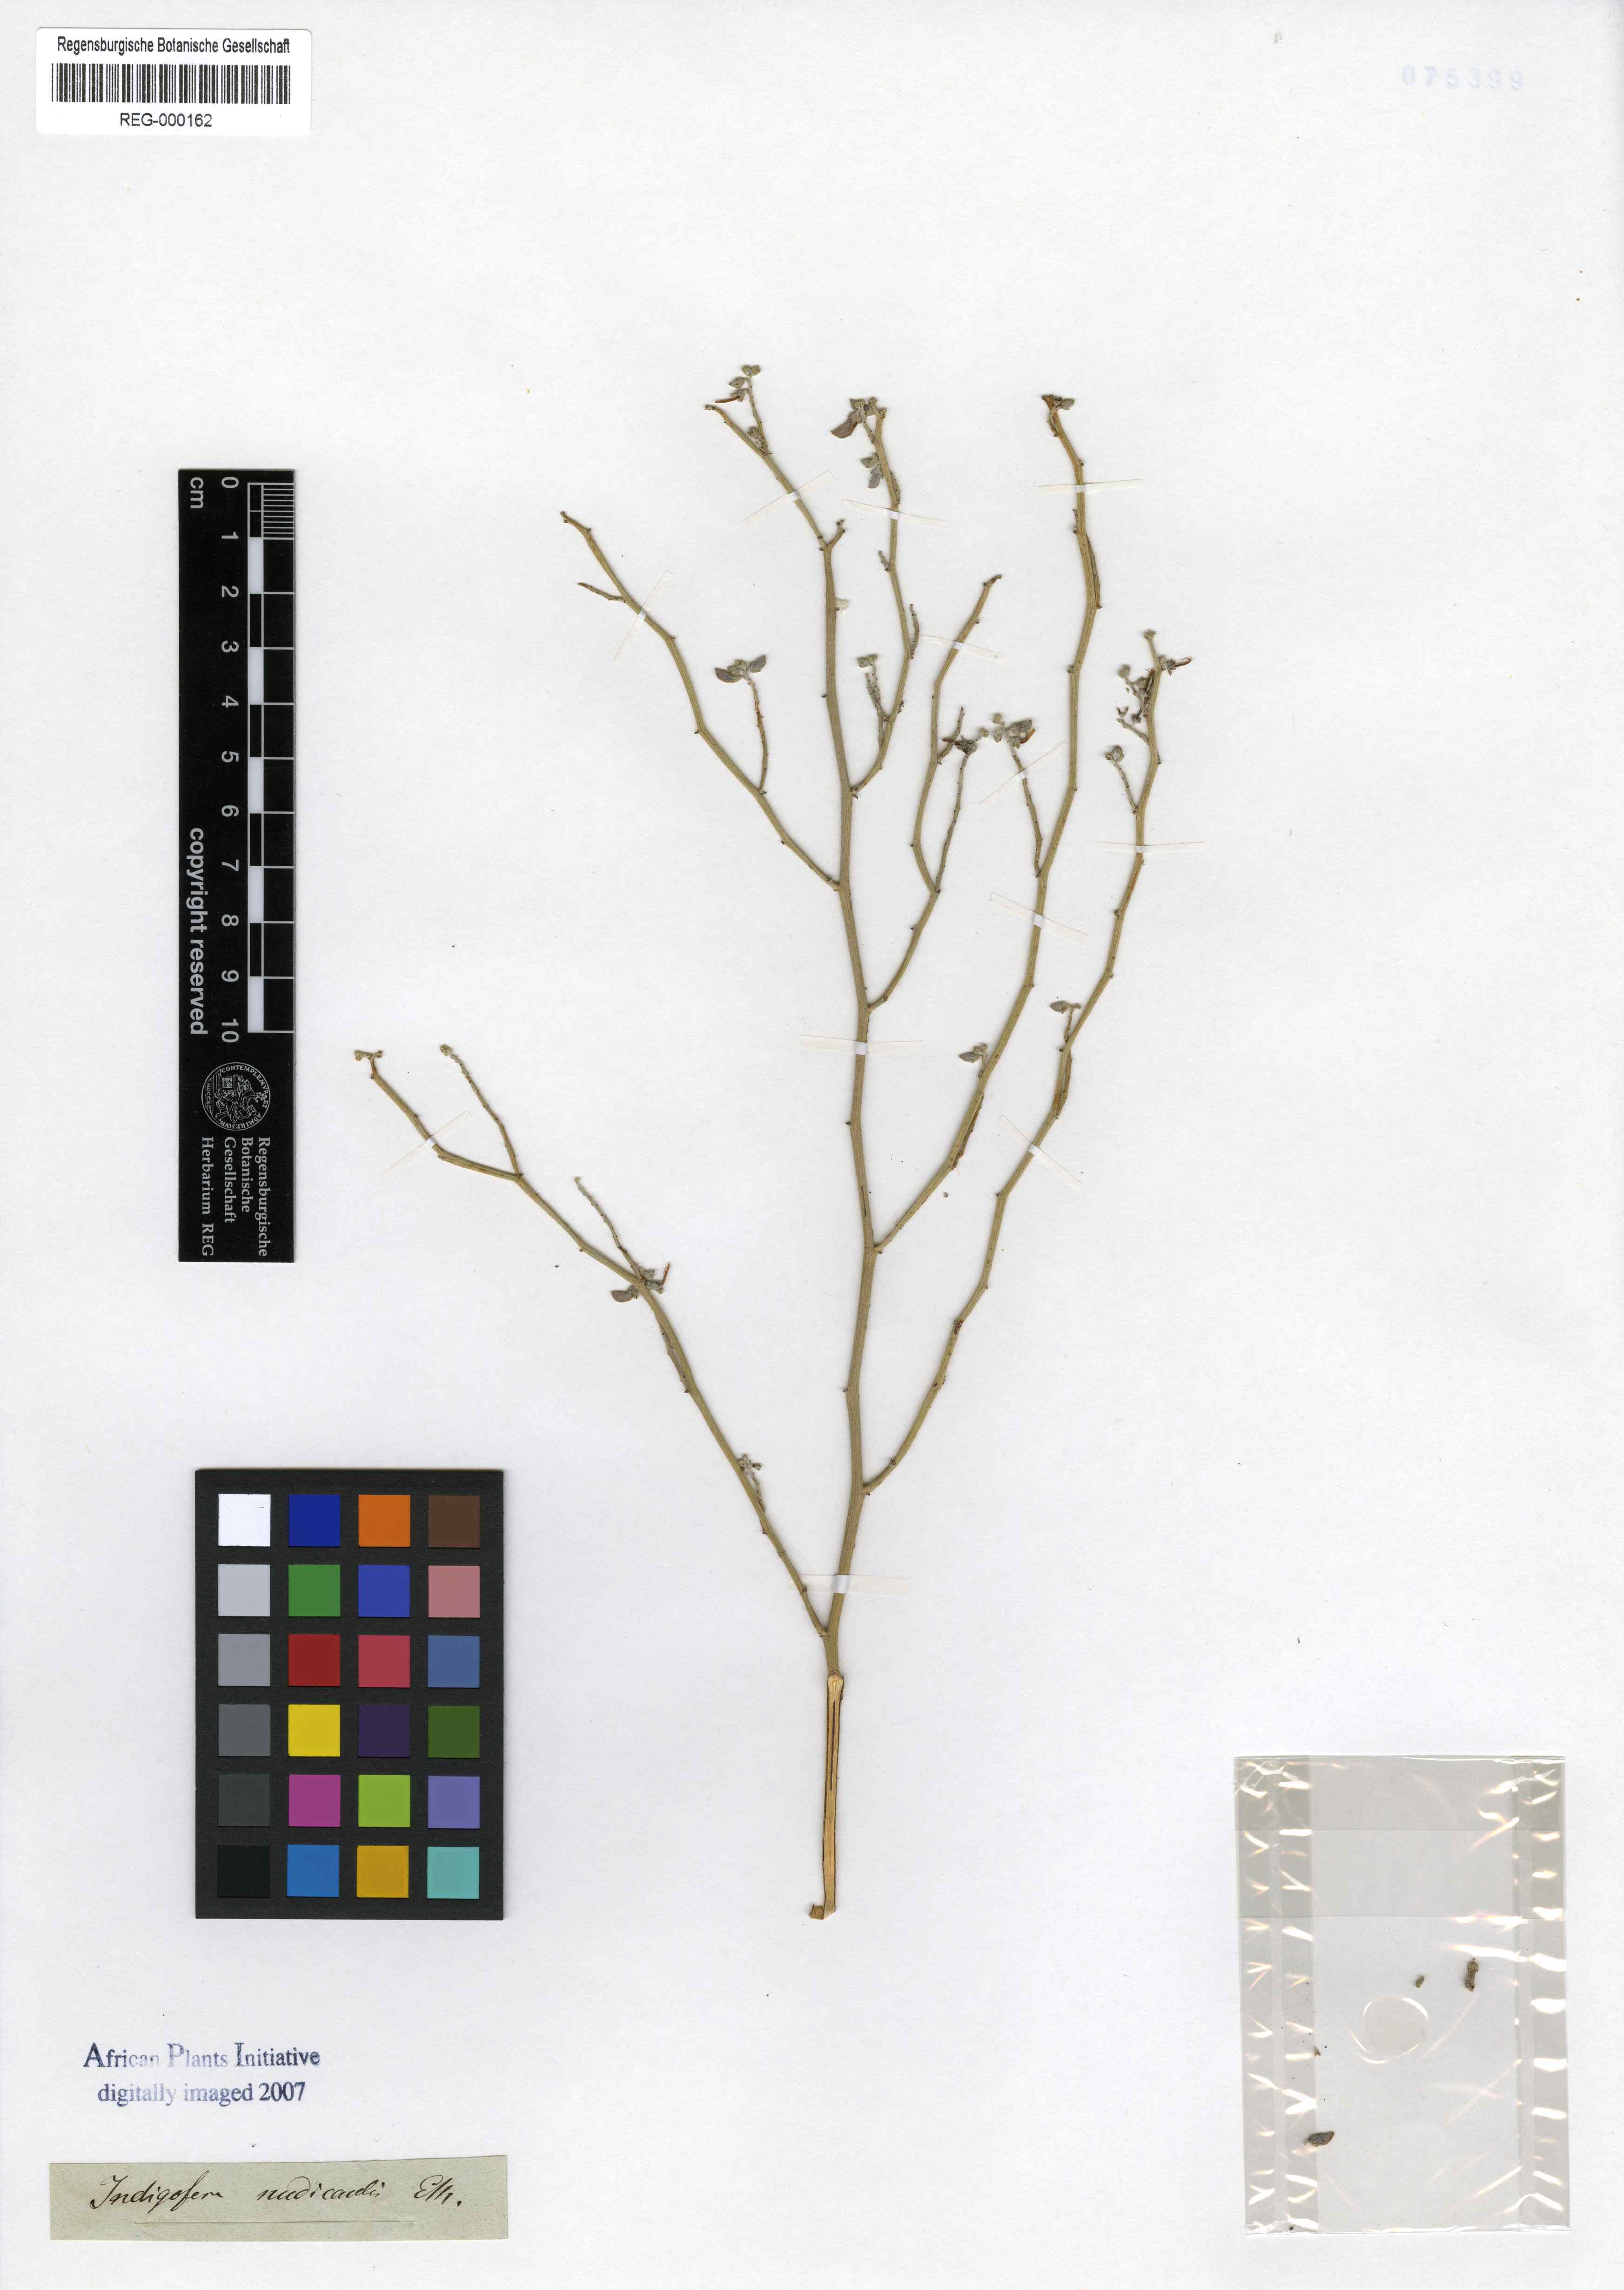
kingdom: Plantae
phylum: Tracheophyta
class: Magnoliopsida
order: Fabales
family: Fabaceae
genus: Indigofera
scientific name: Indigofera nudicaulis
